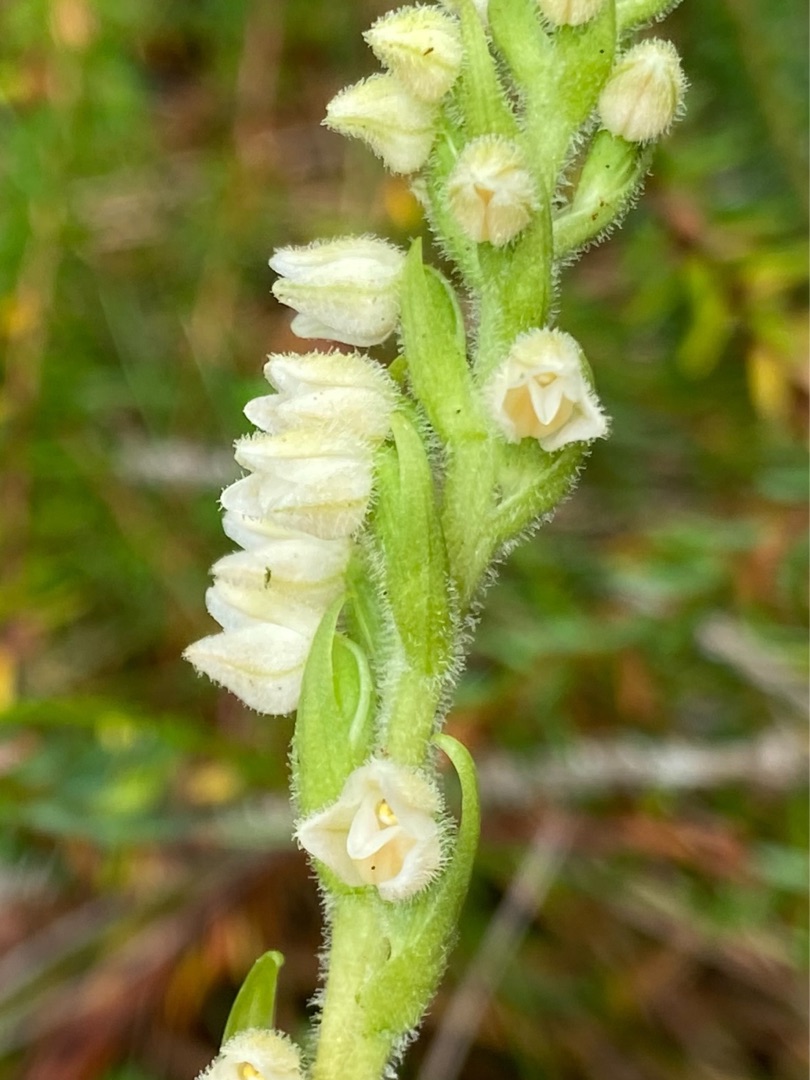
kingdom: Plantae
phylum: Tracheophyta
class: Liliopsida
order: Asparagales
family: Orchidaceae
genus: Goodyera
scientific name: Goodyera repens
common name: Knærod
